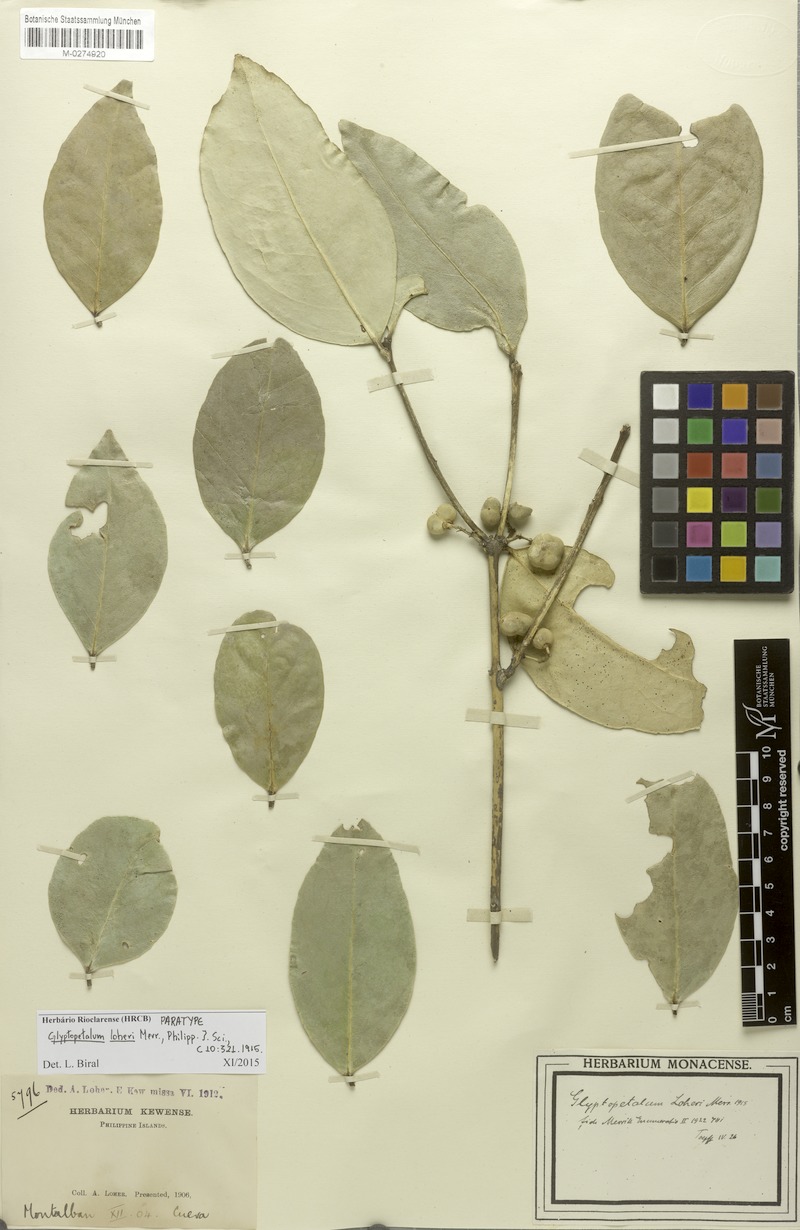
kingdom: Plantae
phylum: Tracheophyta
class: Magnoliopsida
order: Celastrales
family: Celastraceae
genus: Euonymus
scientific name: Euonymus loheri
